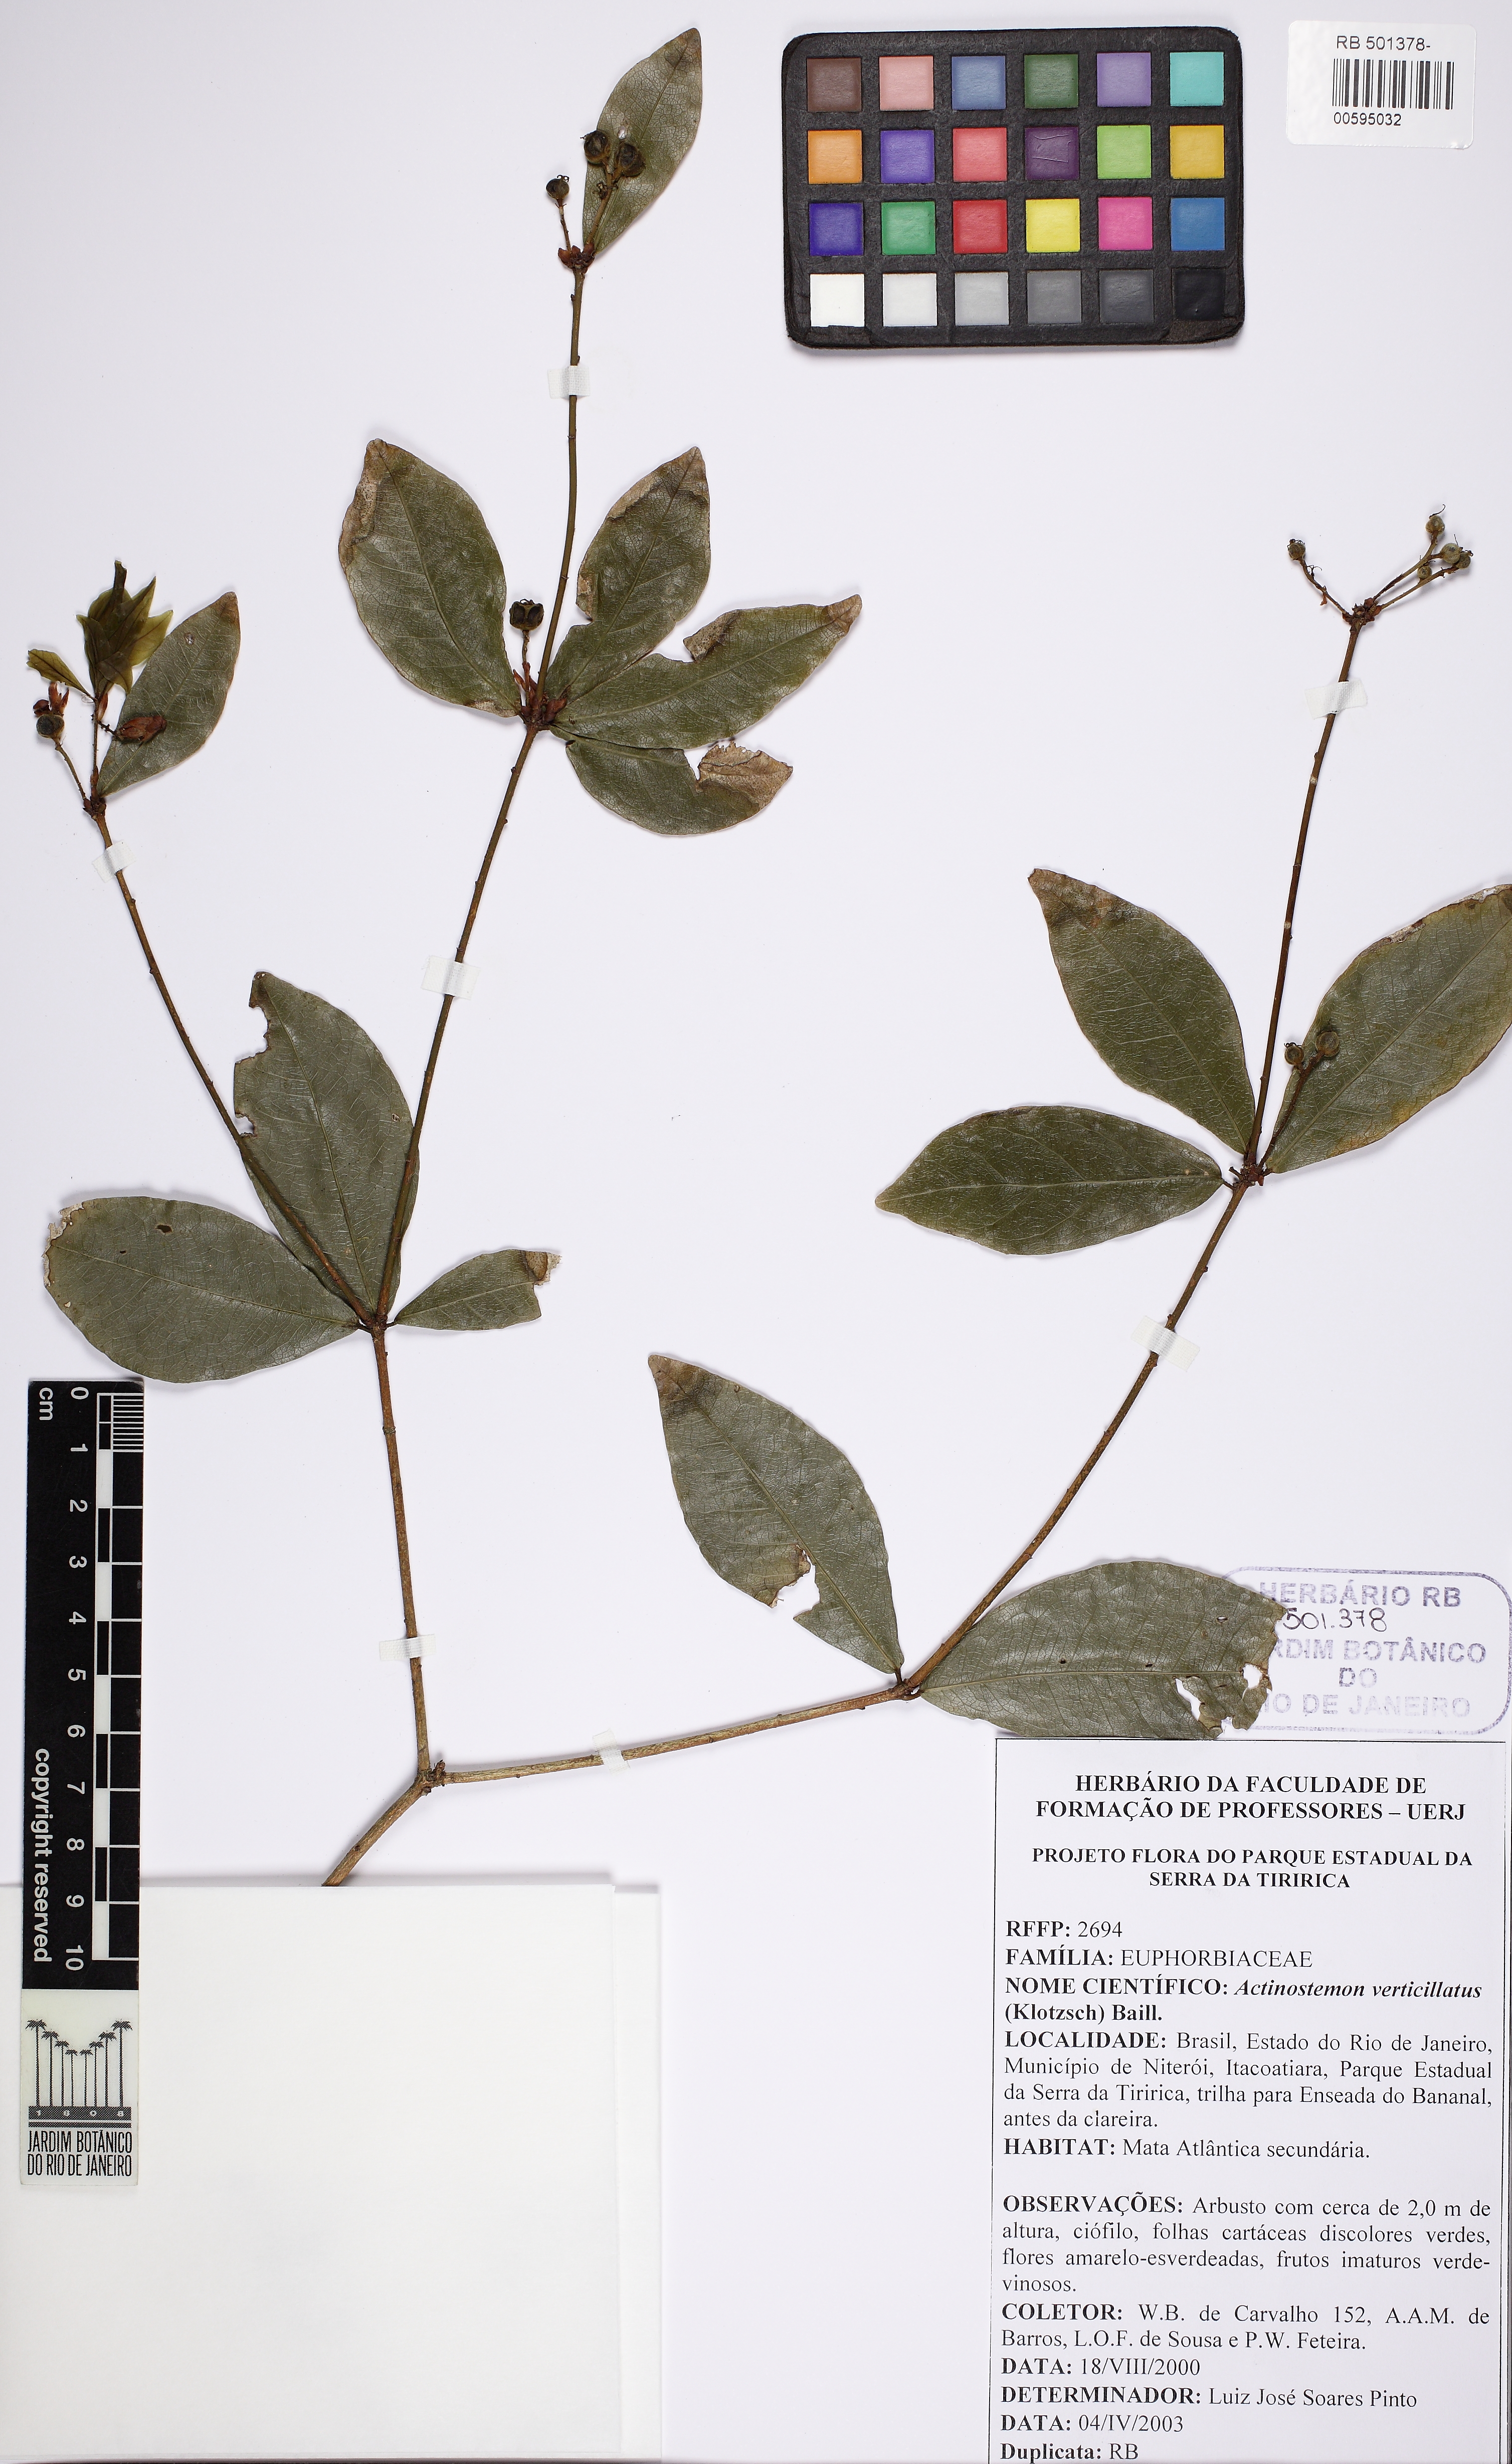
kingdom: Plantae
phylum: Tracheophyta
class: Magnoliopsida
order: Malpighiales
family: Euphorbiaceae
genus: Actinostemon
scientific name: Actinostemon verticillatus
